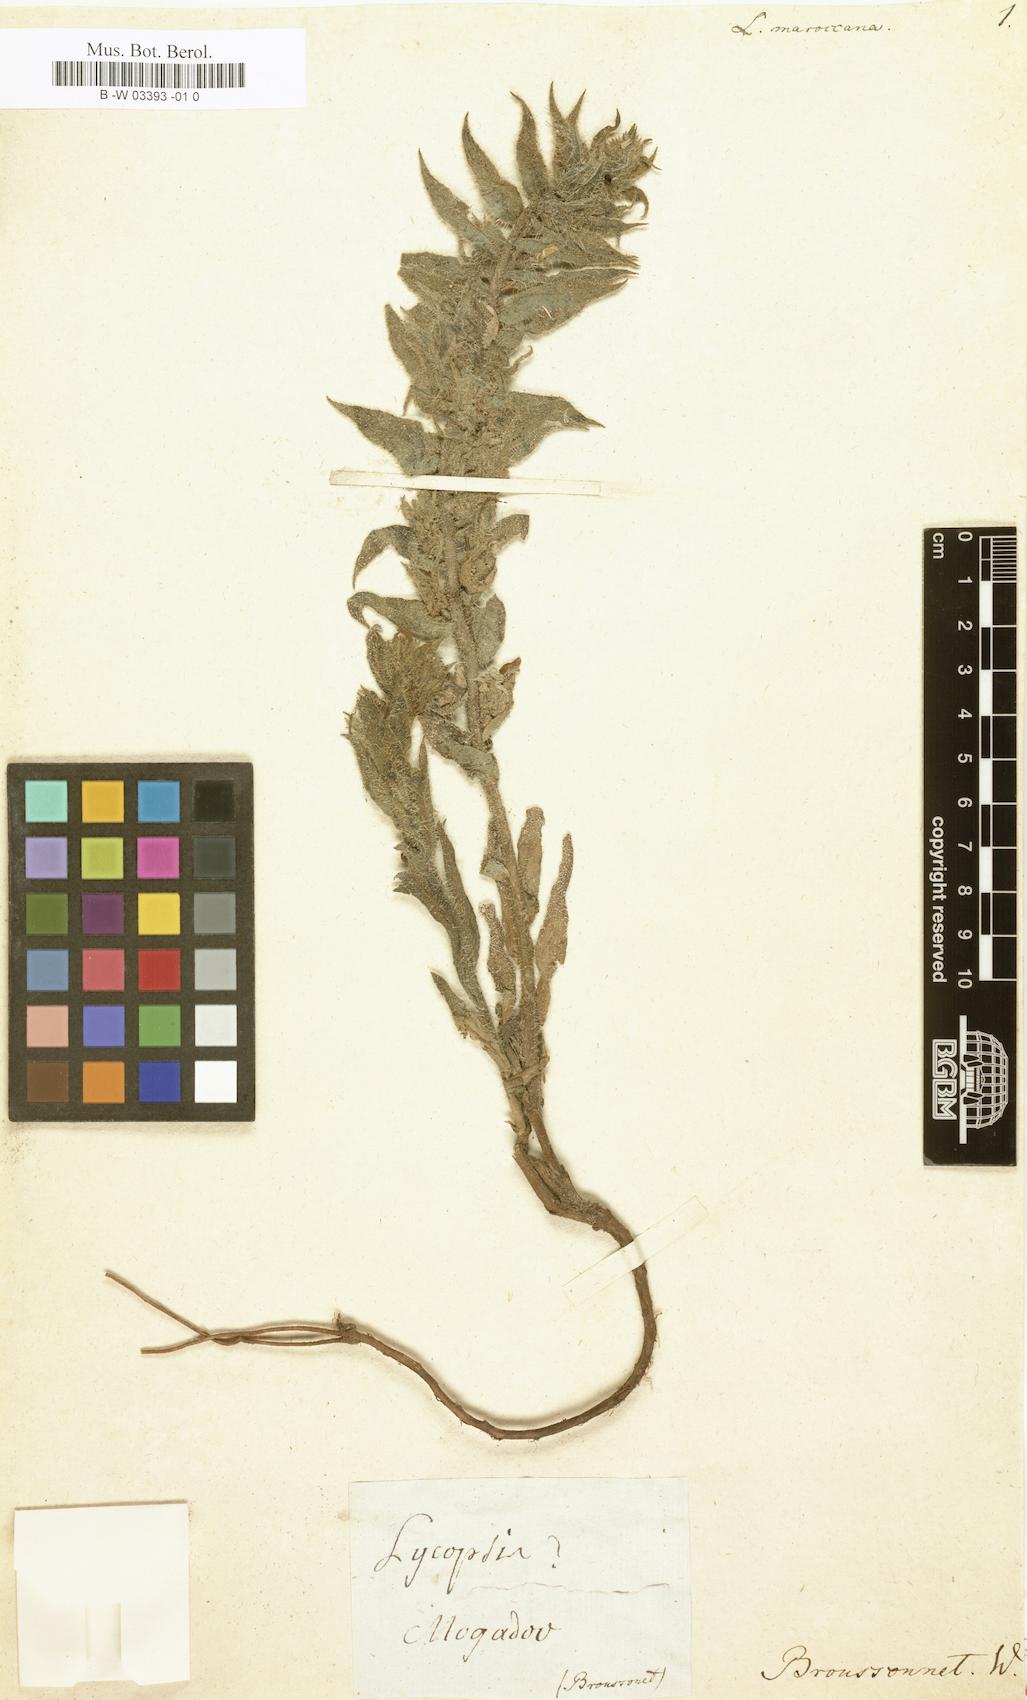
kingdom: Plantae
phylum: Tracheophyta
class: Magnoliopsida
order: Boraginales
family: Boraginaceae
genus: Anchusa
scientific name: Anchusa Lycopsis maroccana
